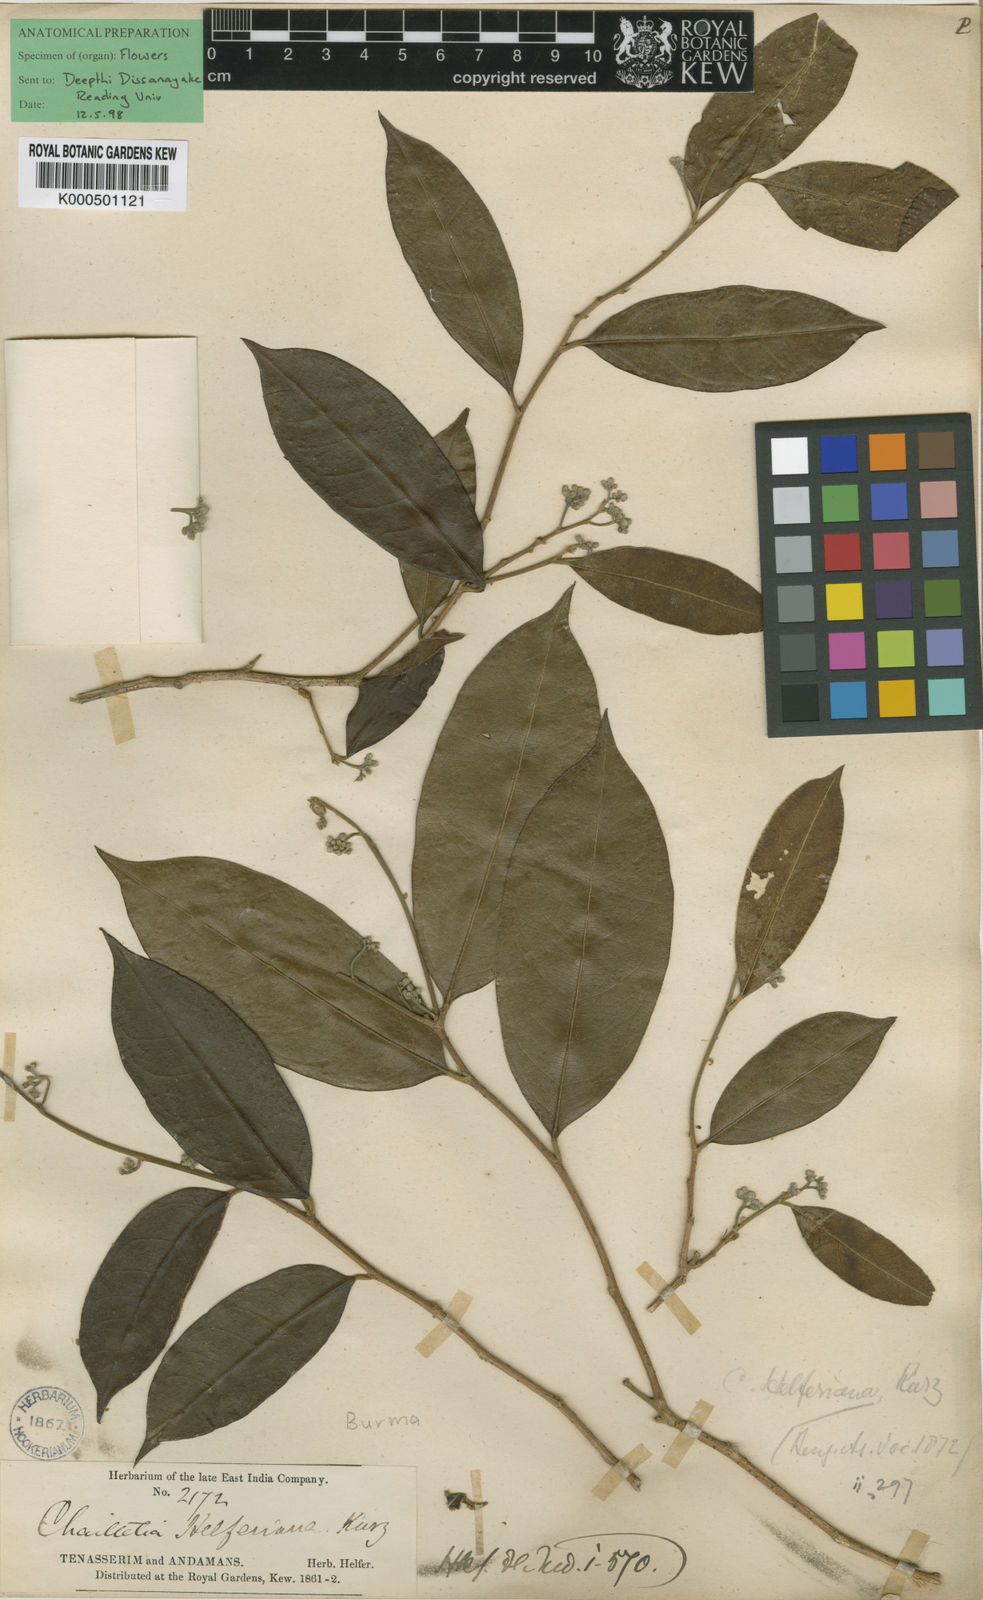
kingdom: Plantae
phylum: Tracheophyta
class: Magnoliopsida
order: Malpighiales
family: Dichapetalaceae
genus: Dichapetalum
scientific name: Dichapetalum helferianum
